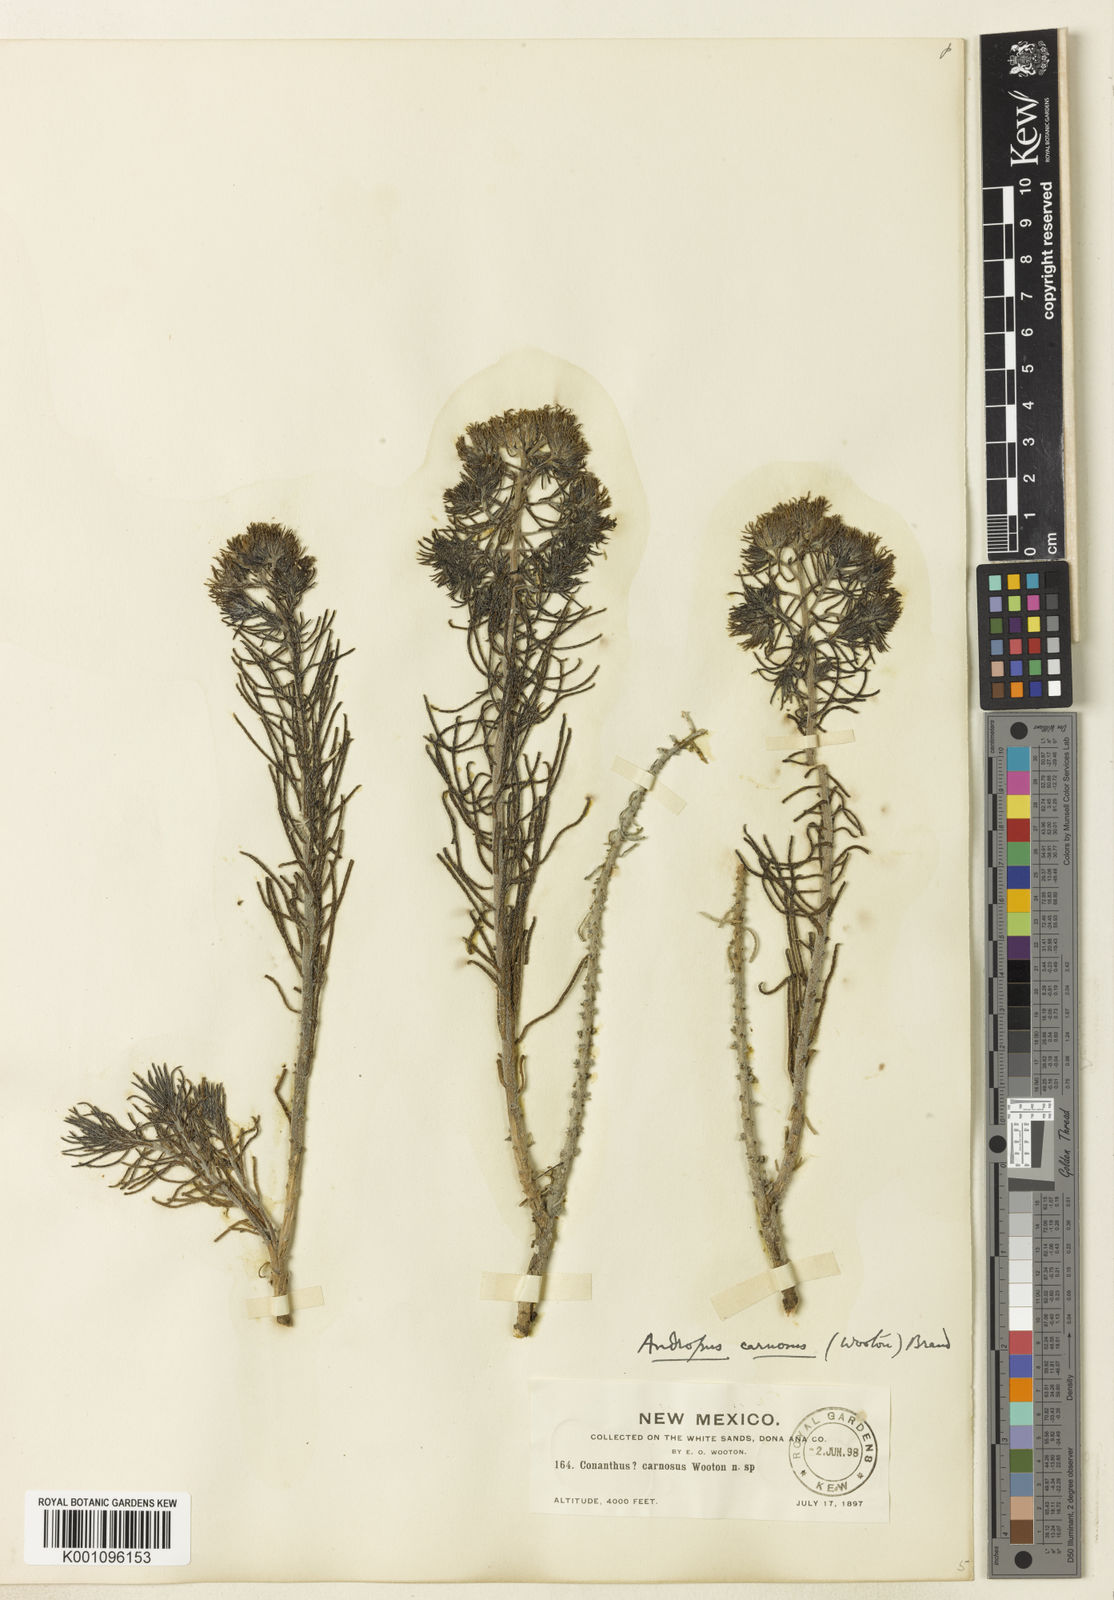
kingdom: Plantae
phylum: Tracheophyta
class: Magnoliopsida
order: Boraginales
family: Namaceae
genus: Andropus
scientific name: Andropus carnosus
